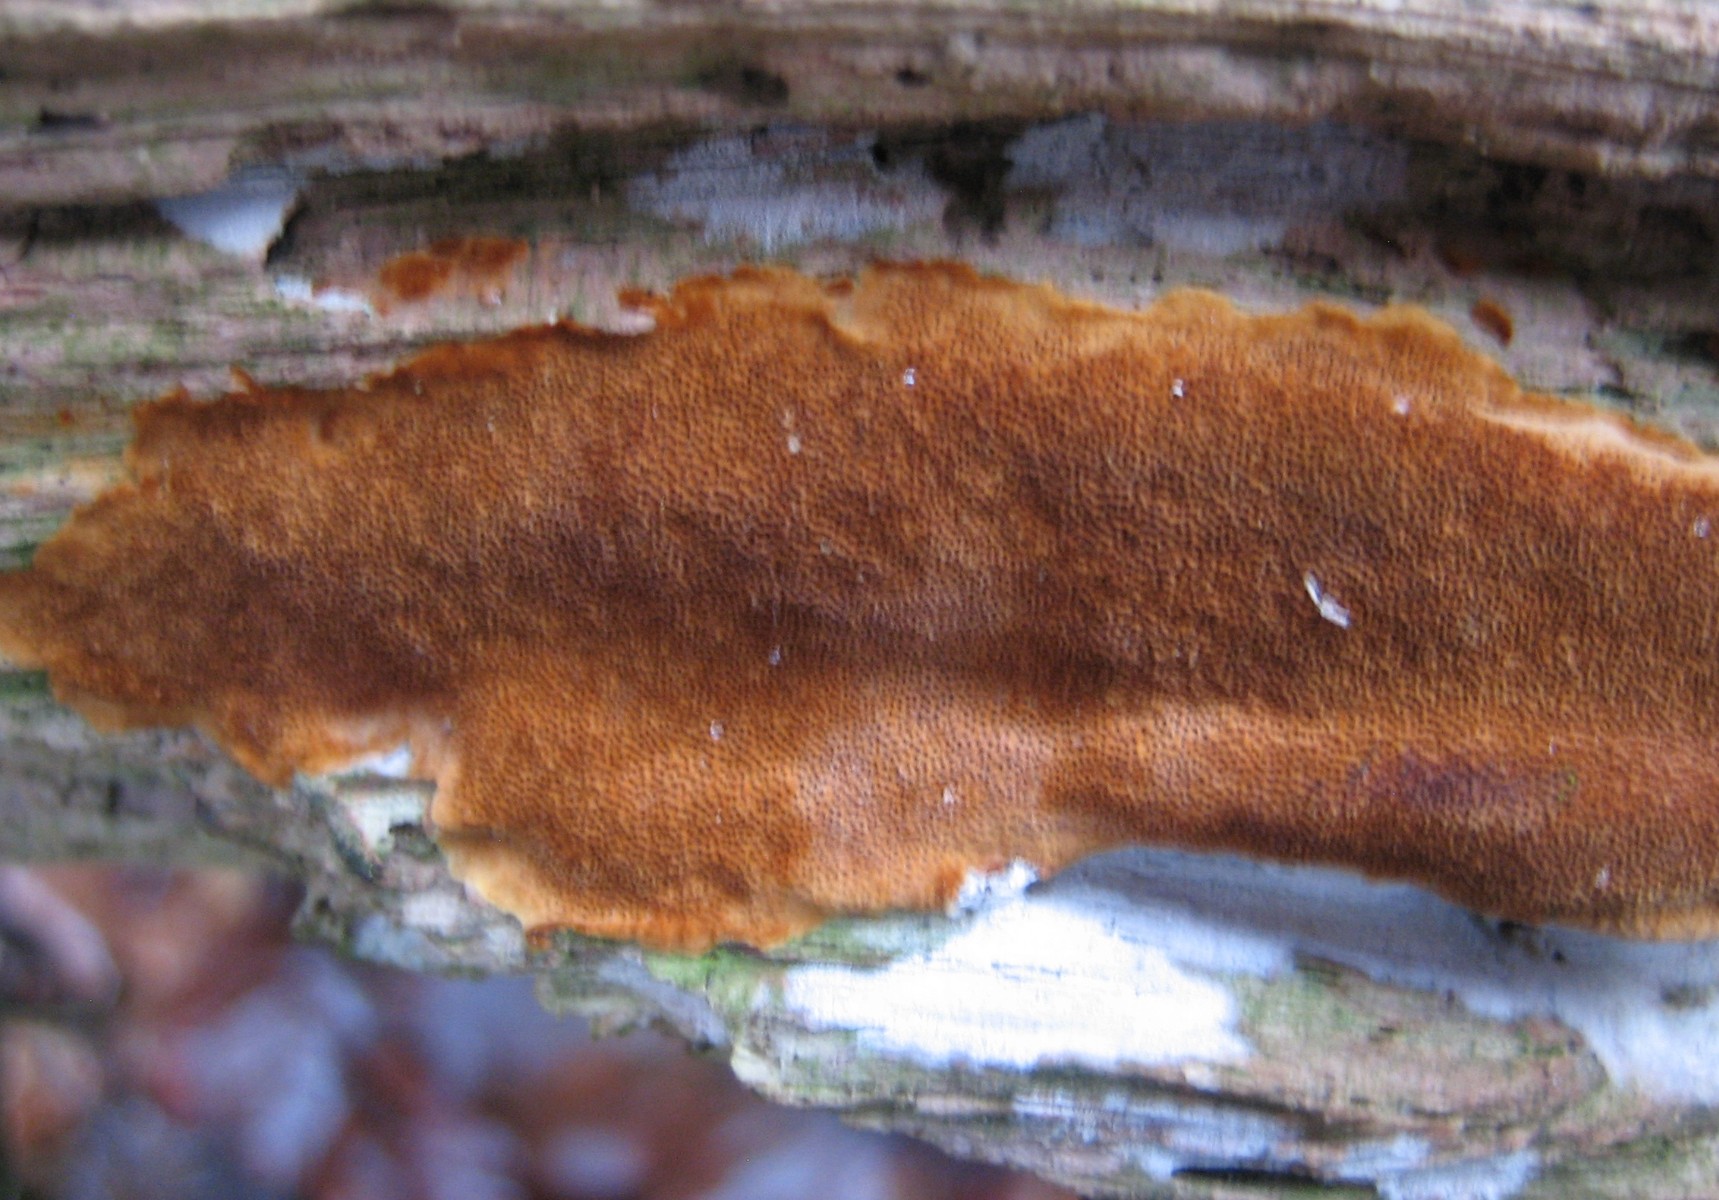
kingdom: Fungi
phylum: Basidiomycota
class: Agaricomycetes
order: Hymenochaetales
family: Hymenochaetaceae
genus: Fuscoporia
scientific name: Fuscoporia ferrea
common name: skorpe-ildporesvamp
